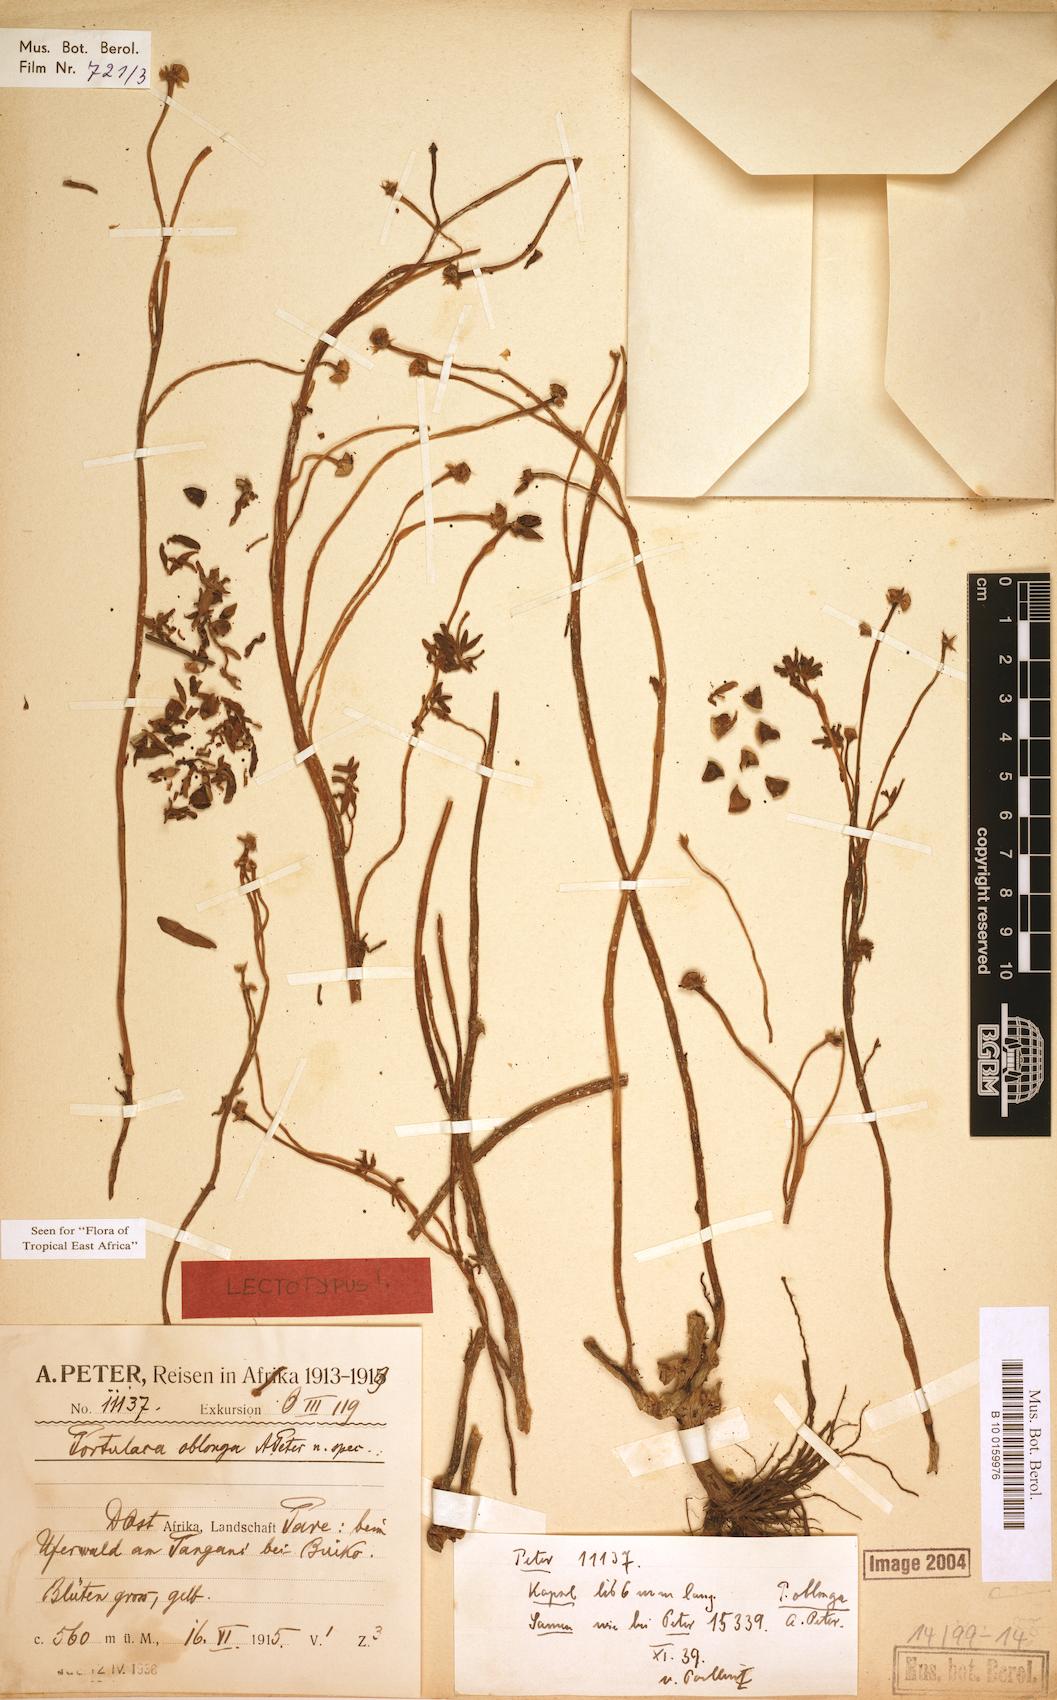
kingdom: Plantae
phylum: Tracheophyta
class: Magnoliopsida
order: Caryophyllales
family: Portulacaceae
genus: Portulaca
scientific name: Portulaca oblonga
